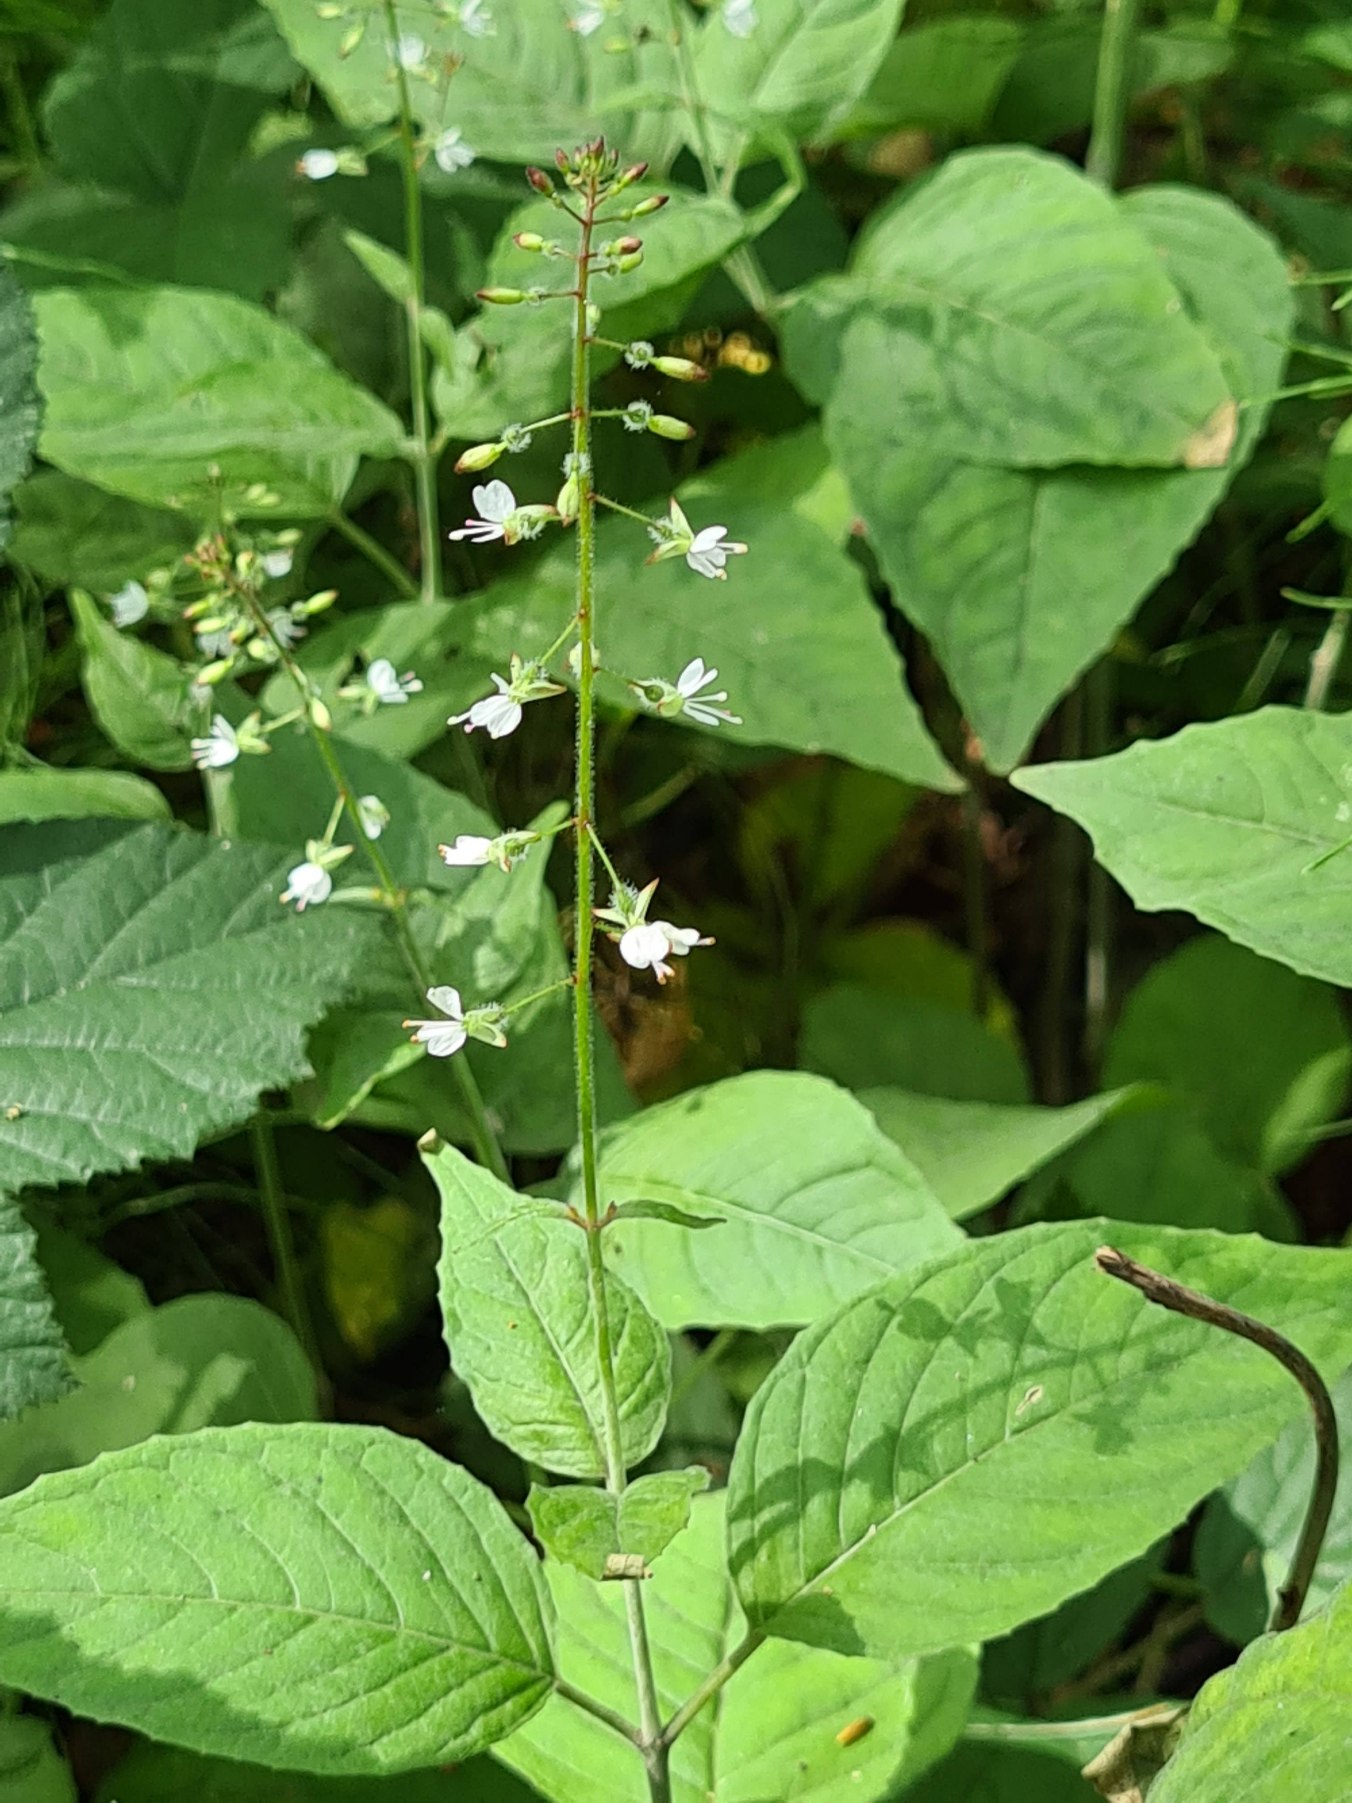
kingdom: Plantae
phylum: Tracheophyta
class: Magnoliopsida
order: Myrtales
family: Onagraceae
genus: Circaea
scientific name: Circaea lutetiana
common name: Dunet steffensurt
